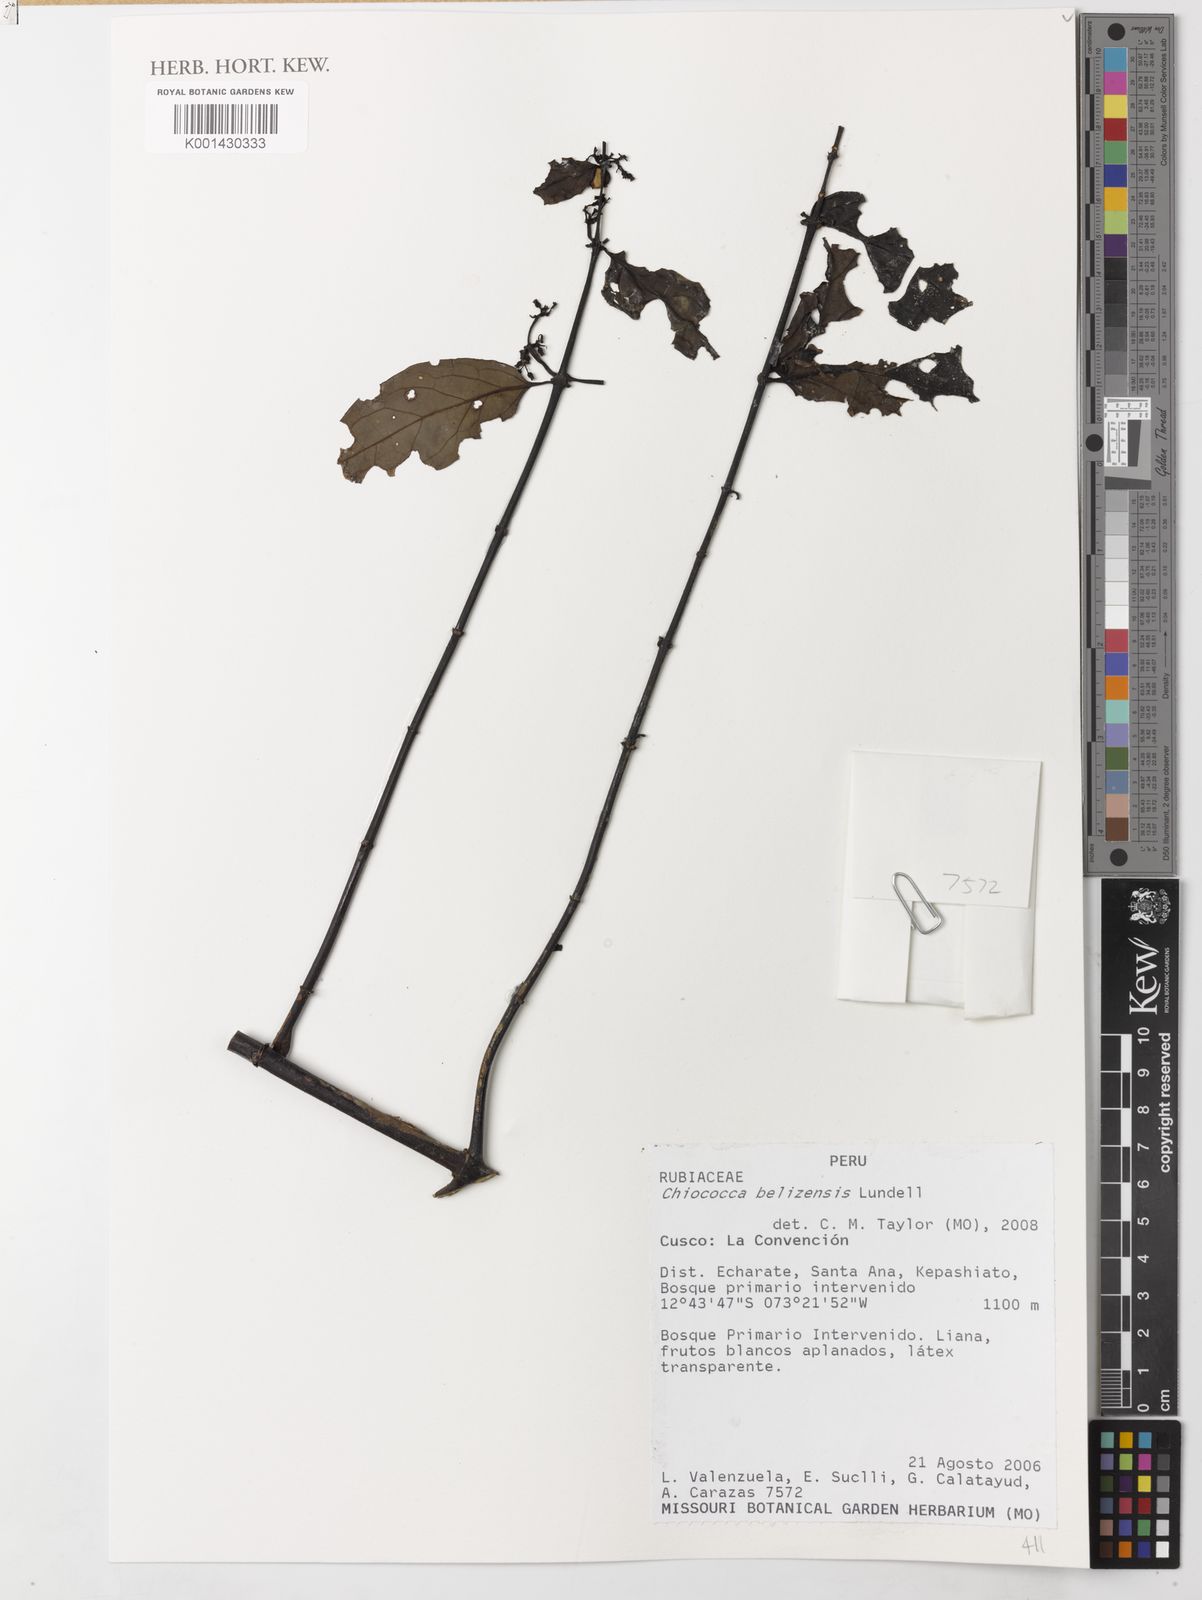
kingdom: Plantae
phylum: Tracheophyta
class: Magnoliopsida
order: Gentianales
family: Rubiaceae
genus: Chiococca
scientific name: Chiococca belizensis
